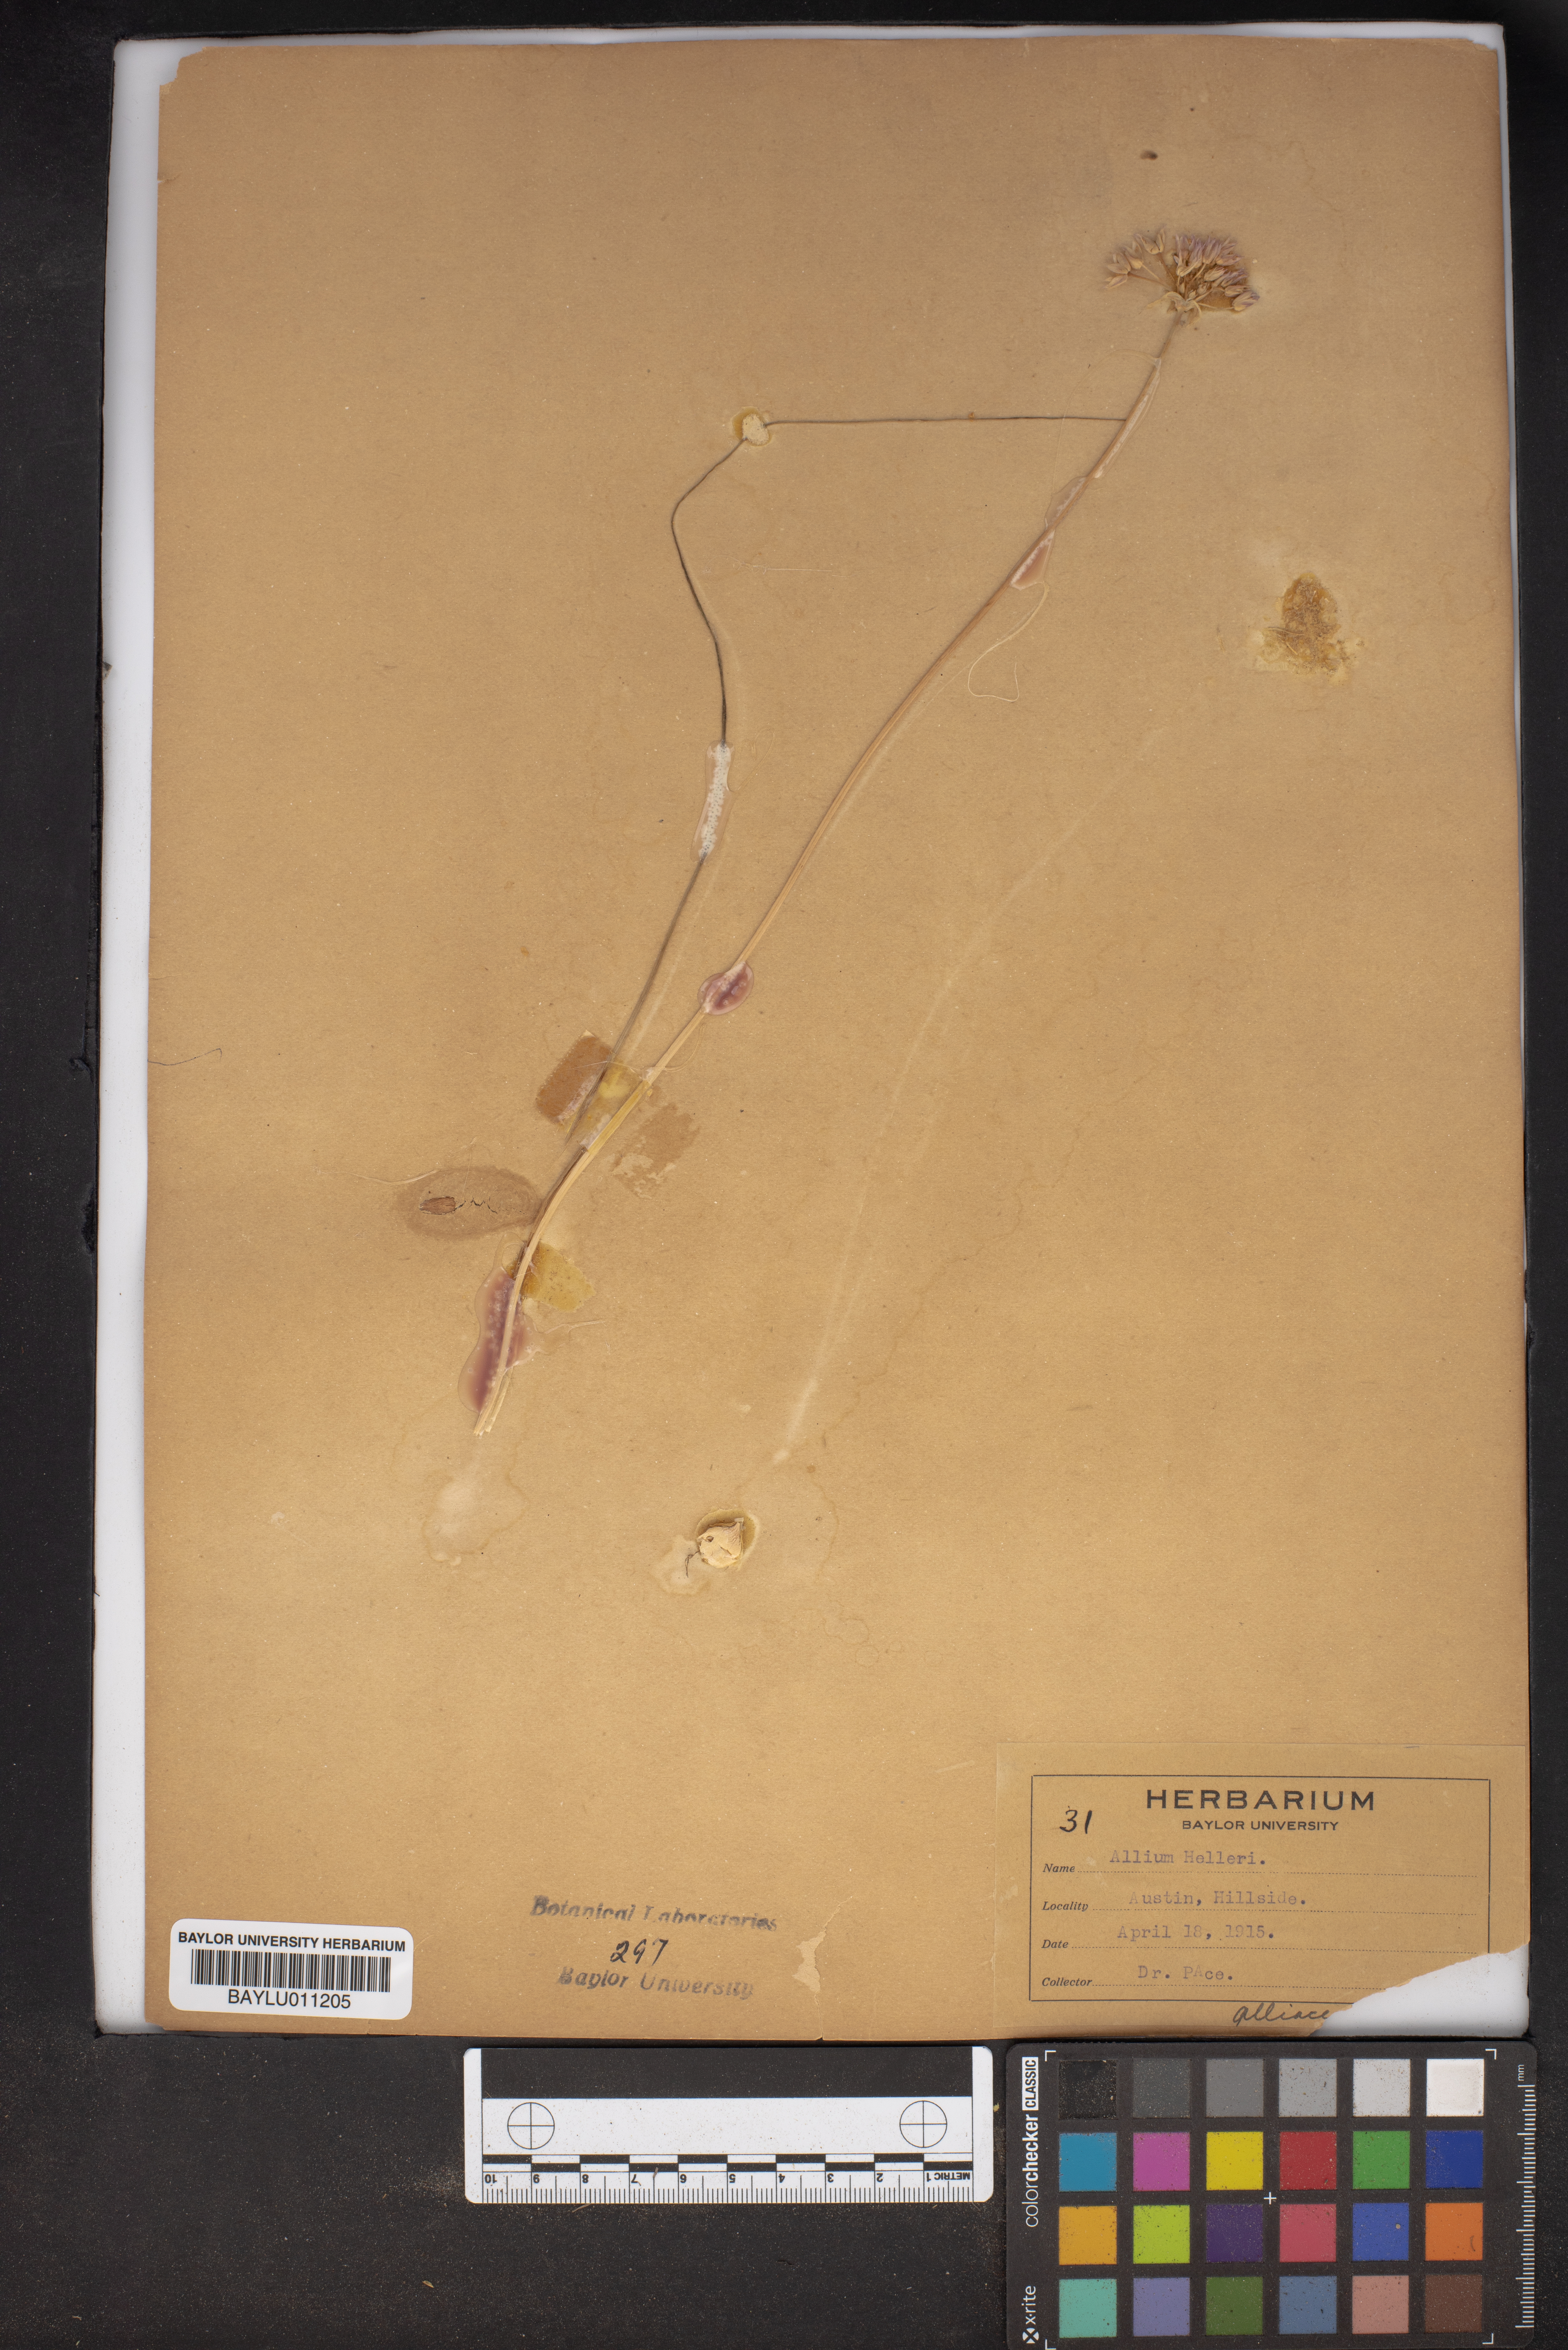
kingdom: Plantae
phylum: Tracheophyta
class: Liliopsida
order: Asparagales
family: Amaryllidaceae
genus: Allium
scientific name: Allium drummondii
